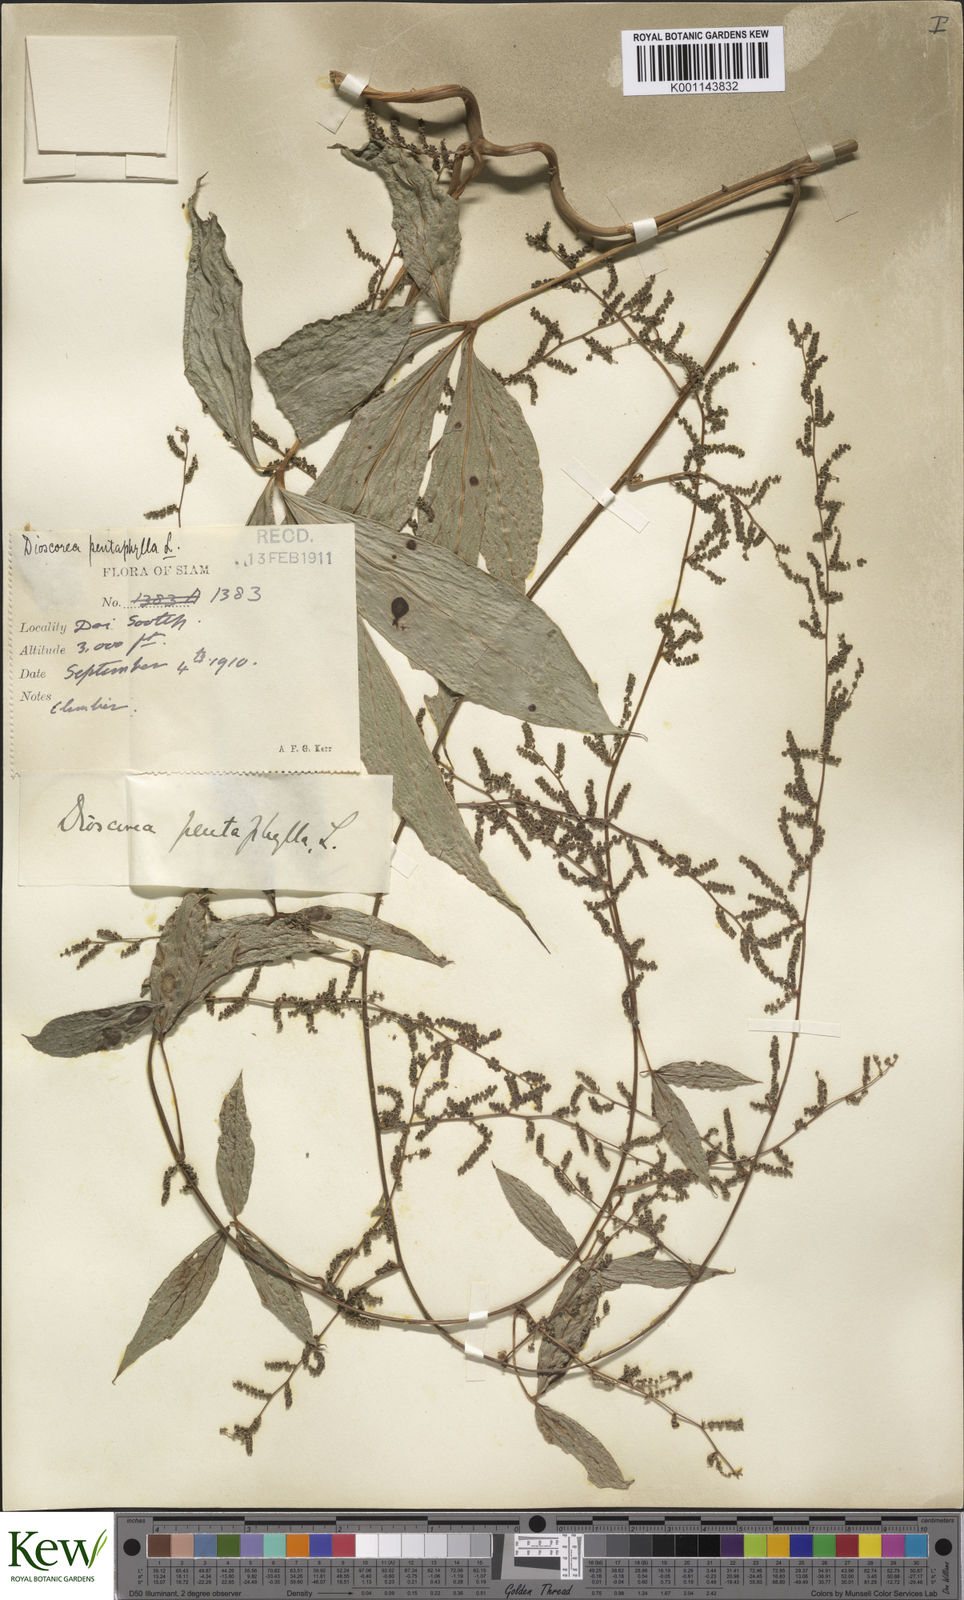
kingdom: Plantae
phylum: Tracheophyta
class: Liliopsida
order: Dioscoreales
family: Dioscoreaceae
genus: Dioscorea
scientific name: Dioscorea pentaphylla
